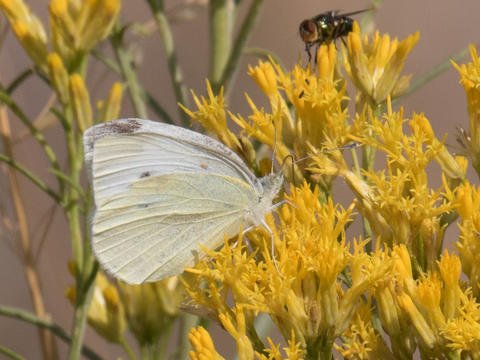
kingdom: Animalia
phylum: Arthropoda
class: Insecta
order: Lepidoptera
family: Pieridae
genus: Pieris
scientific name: Pieris rapae
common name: Cabbage White
